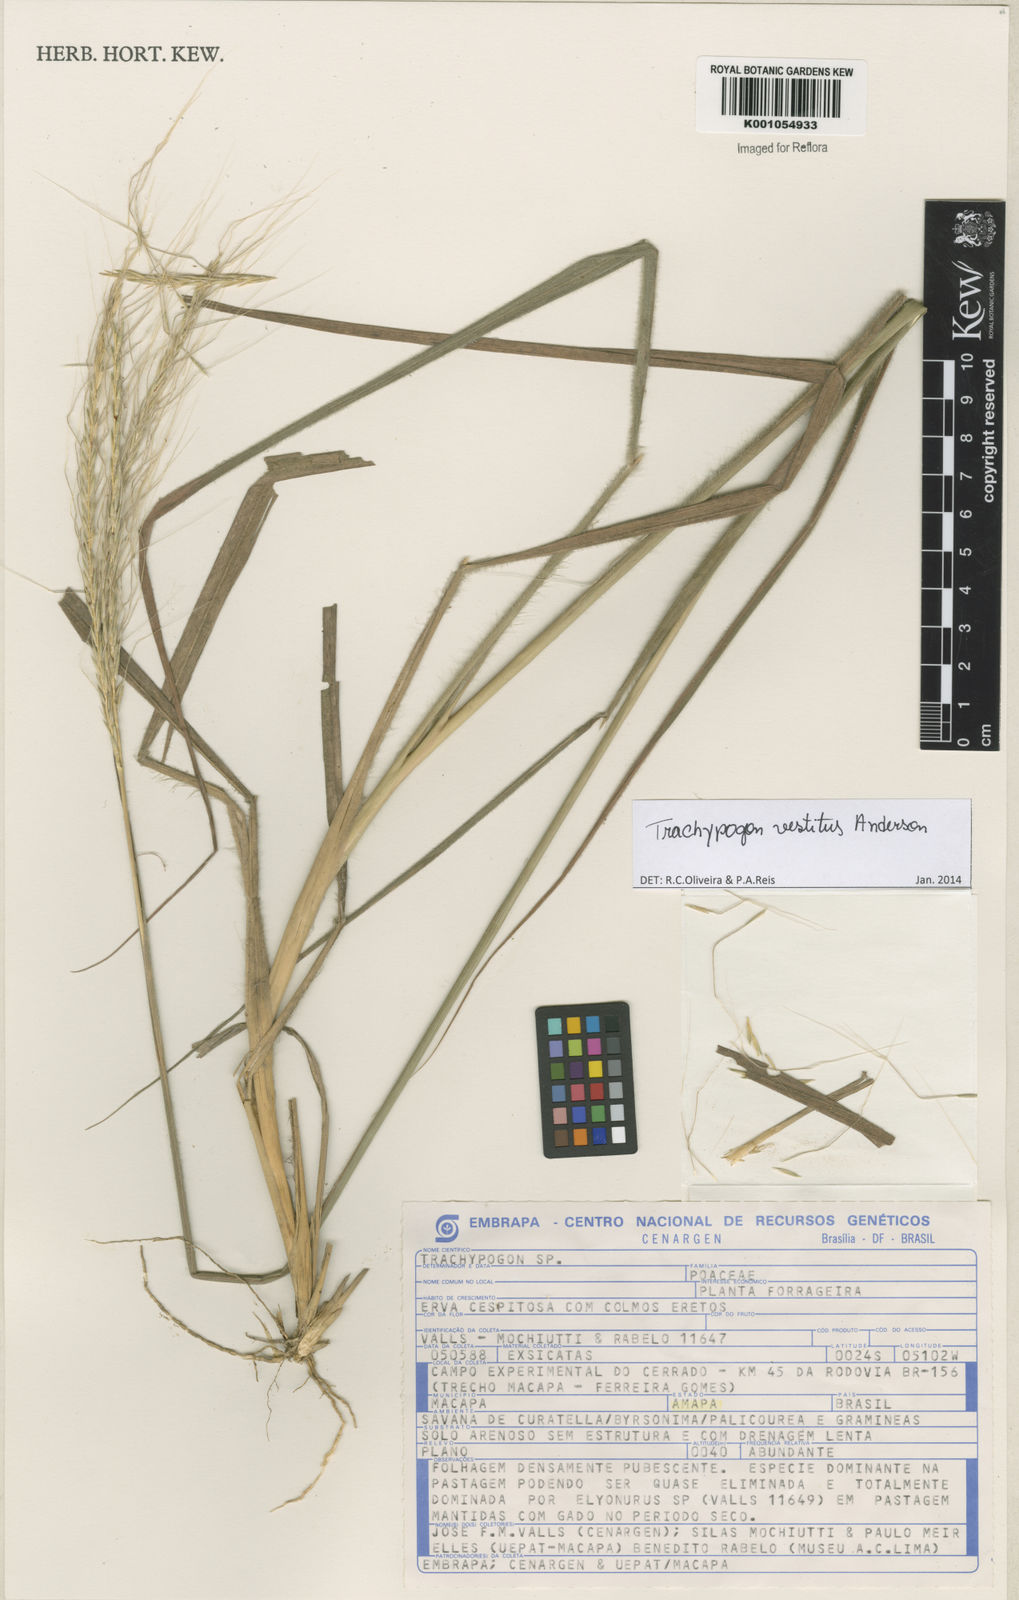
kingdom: Plantae
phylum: Tracheophyta
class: Liliopsida
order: Poales
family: Poaceae
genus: Trachypogon
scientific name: Trachypogon vestitus
